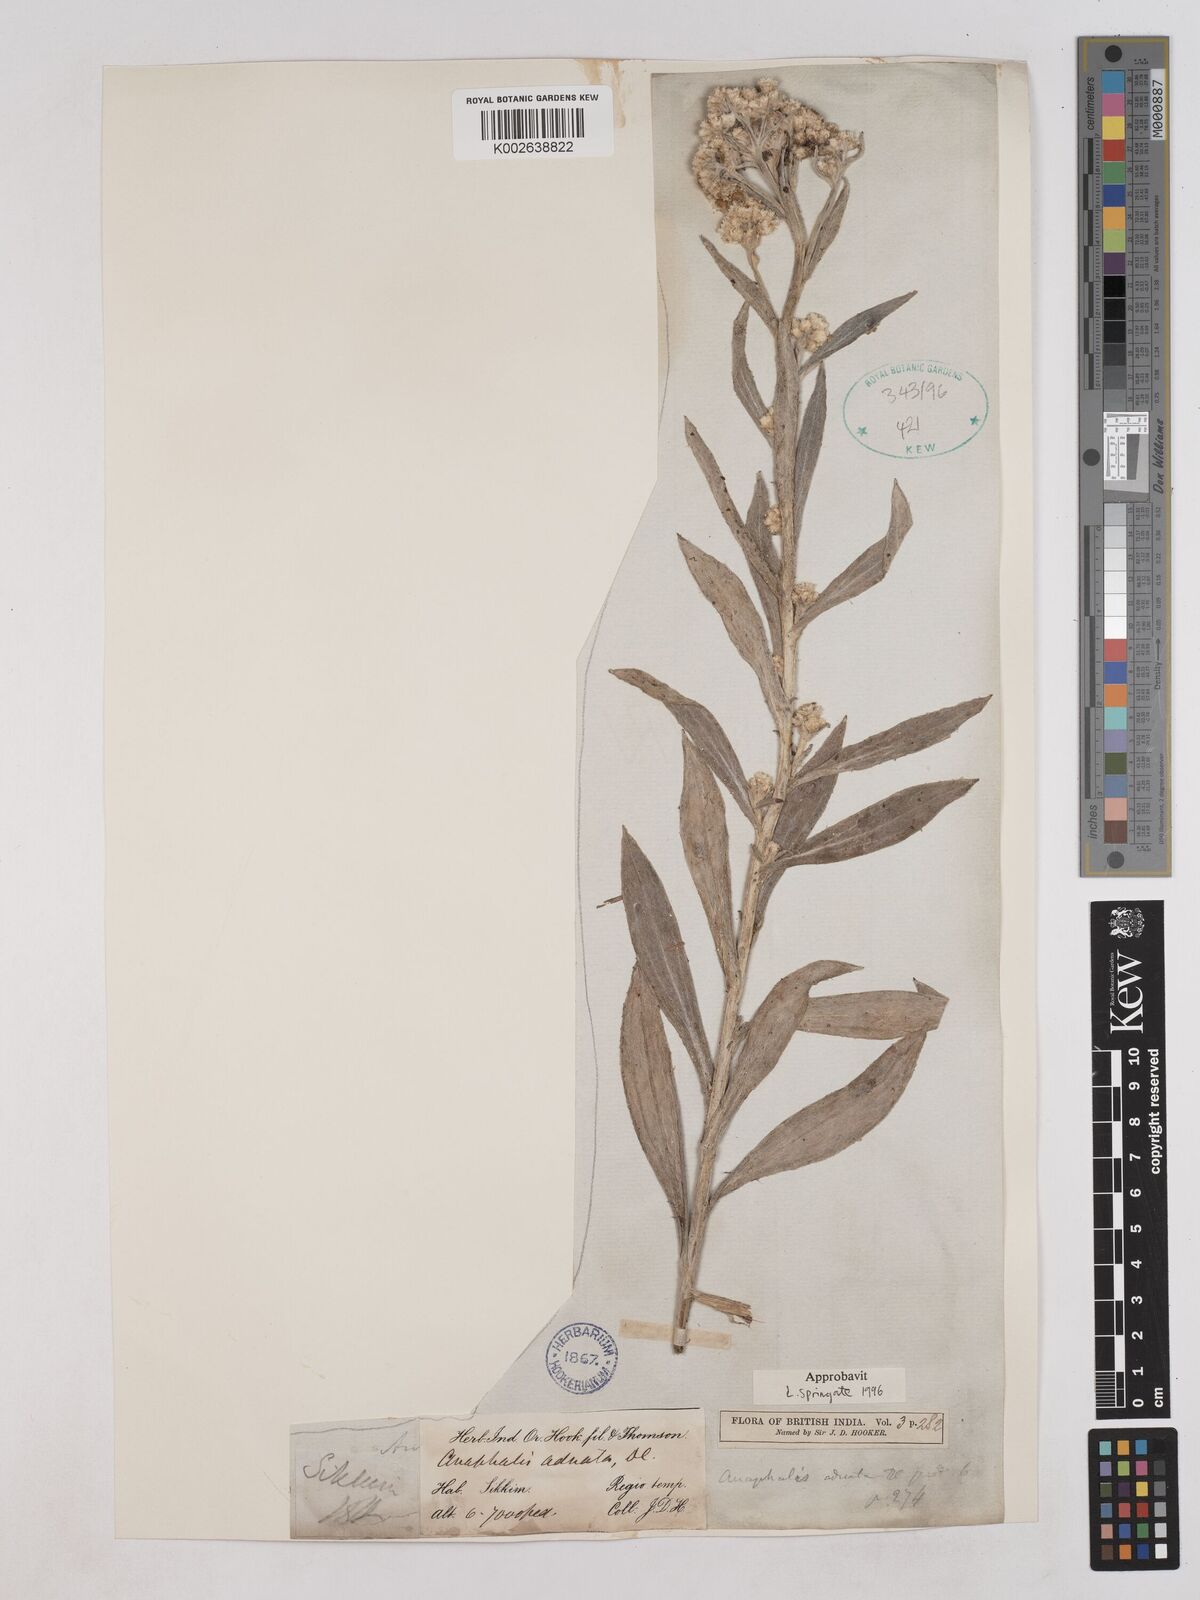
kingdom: Plantae
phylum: Tracheophyta
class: Magnoliopsida
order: Asterales
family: Asteraceae
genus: Pseudognaphalium
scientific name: Pseudognaphalium adnatum
